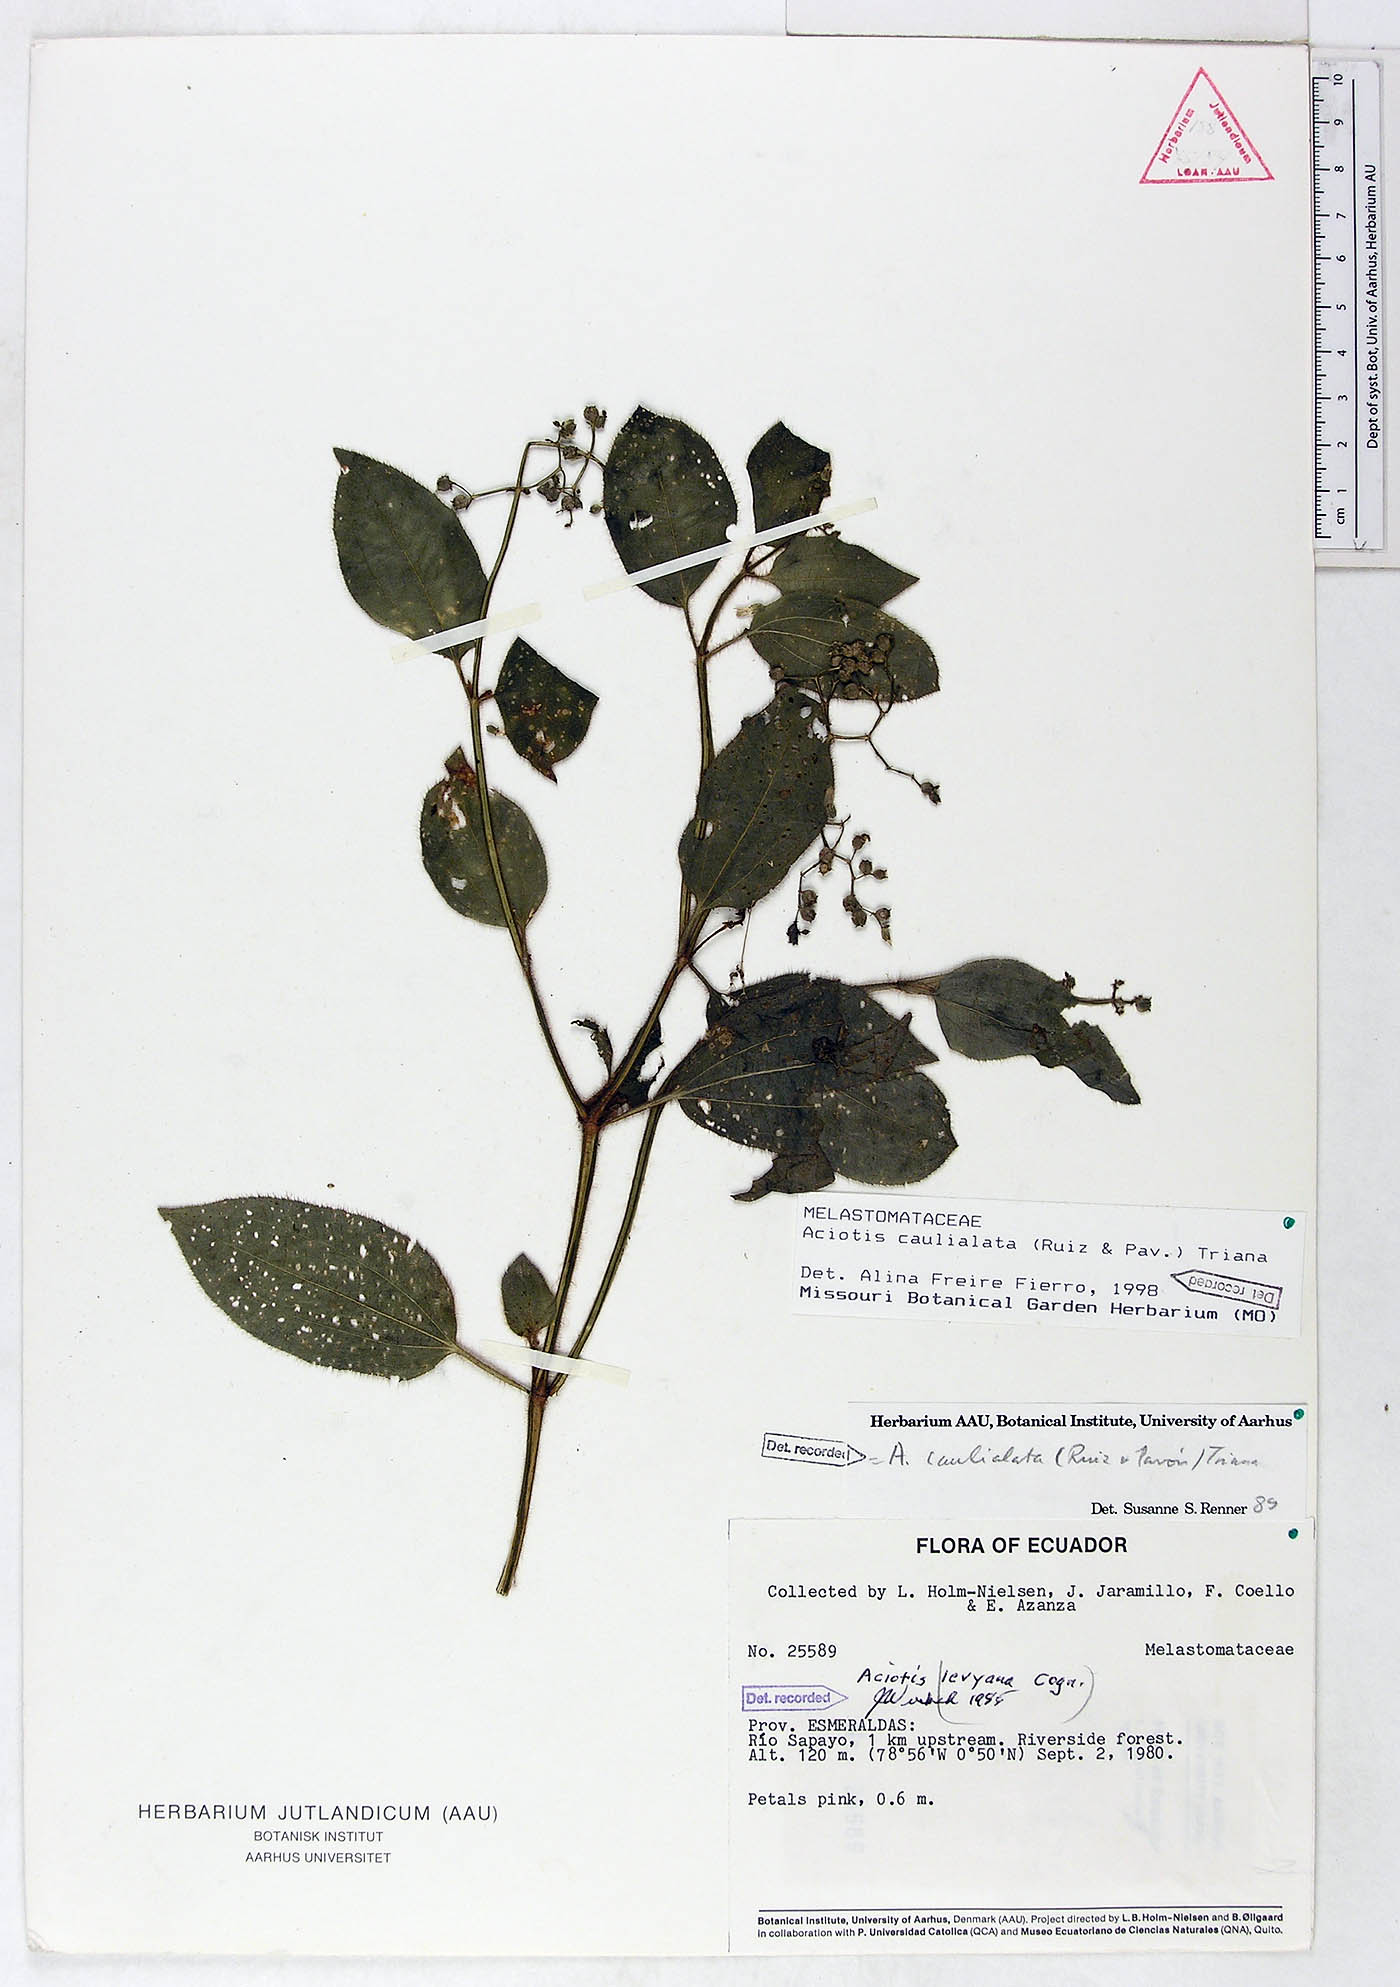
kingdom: Plantae
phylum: Tracheophyta
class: Magnoliopsida
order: Myrtales
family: Melastomataceae
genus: Aciotis
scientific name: Aciotis rubricaulis
